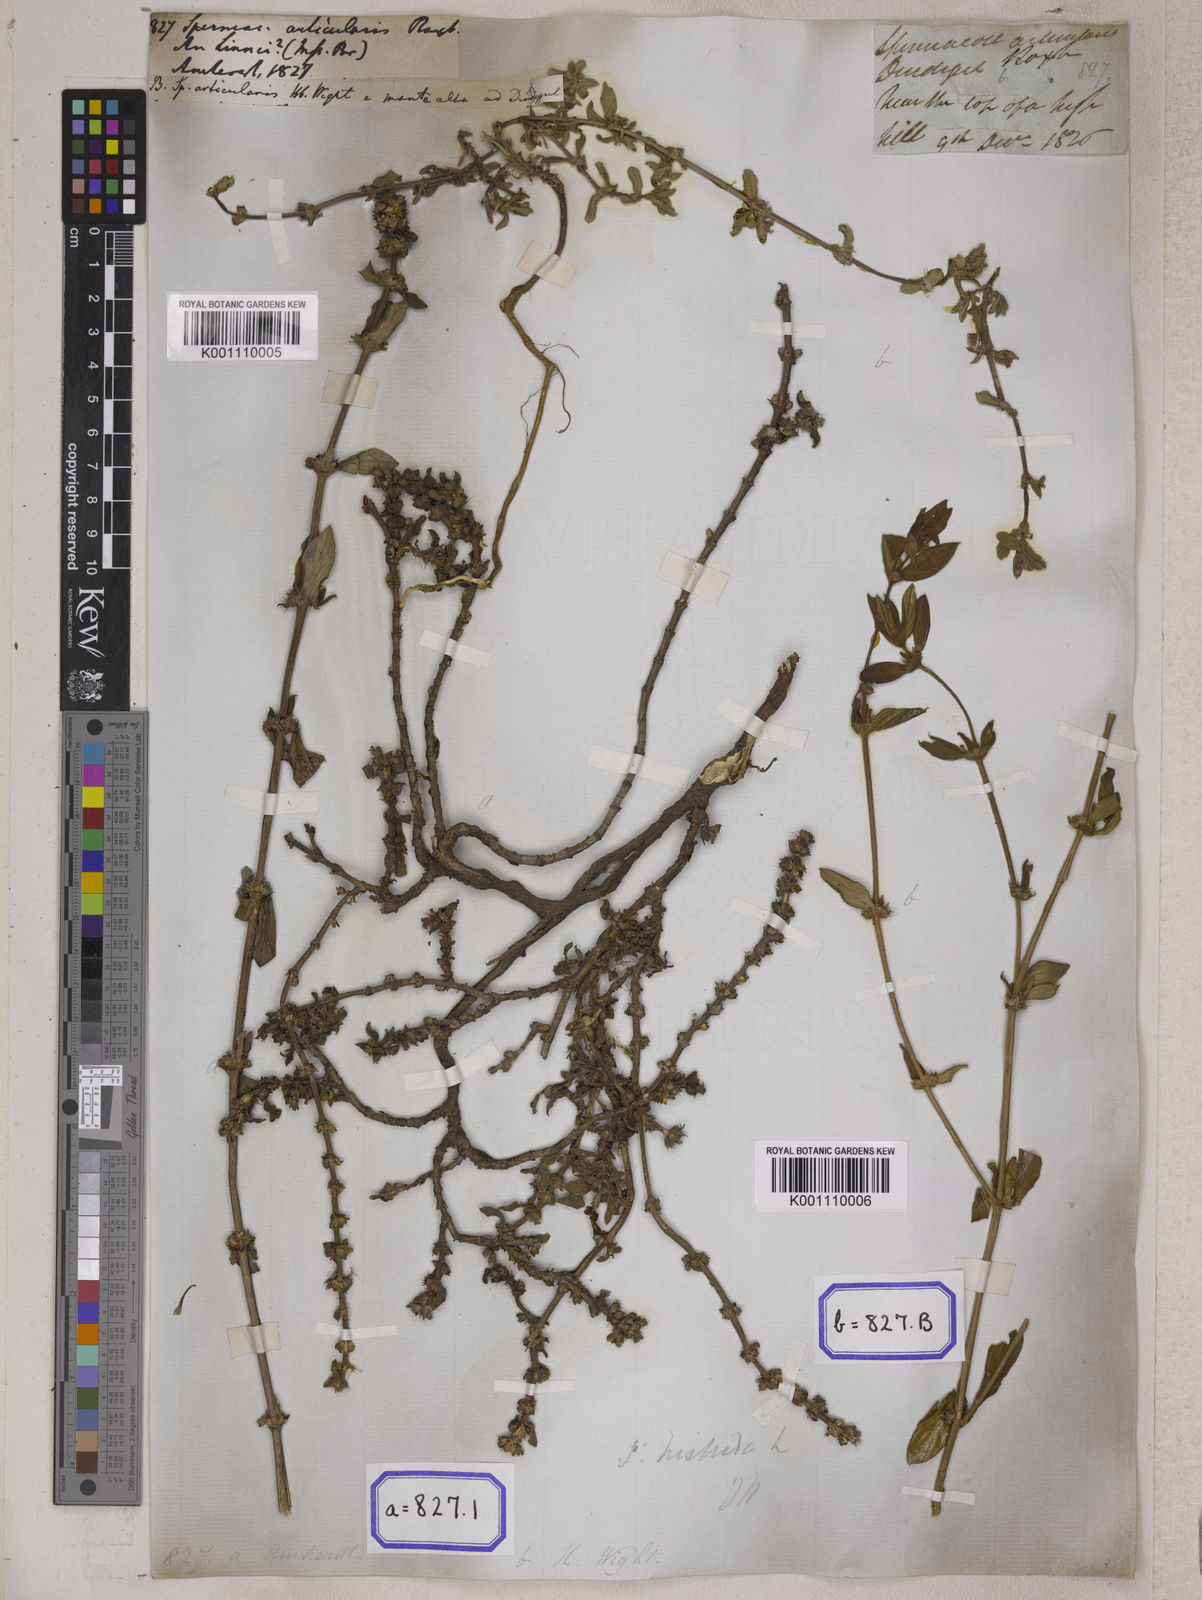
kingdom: Plantae
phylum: Tracheophyta
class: Magnoliopsida
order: Gentianales
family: Rubiaceae
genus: Spermacoce
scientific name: Spermacoce
